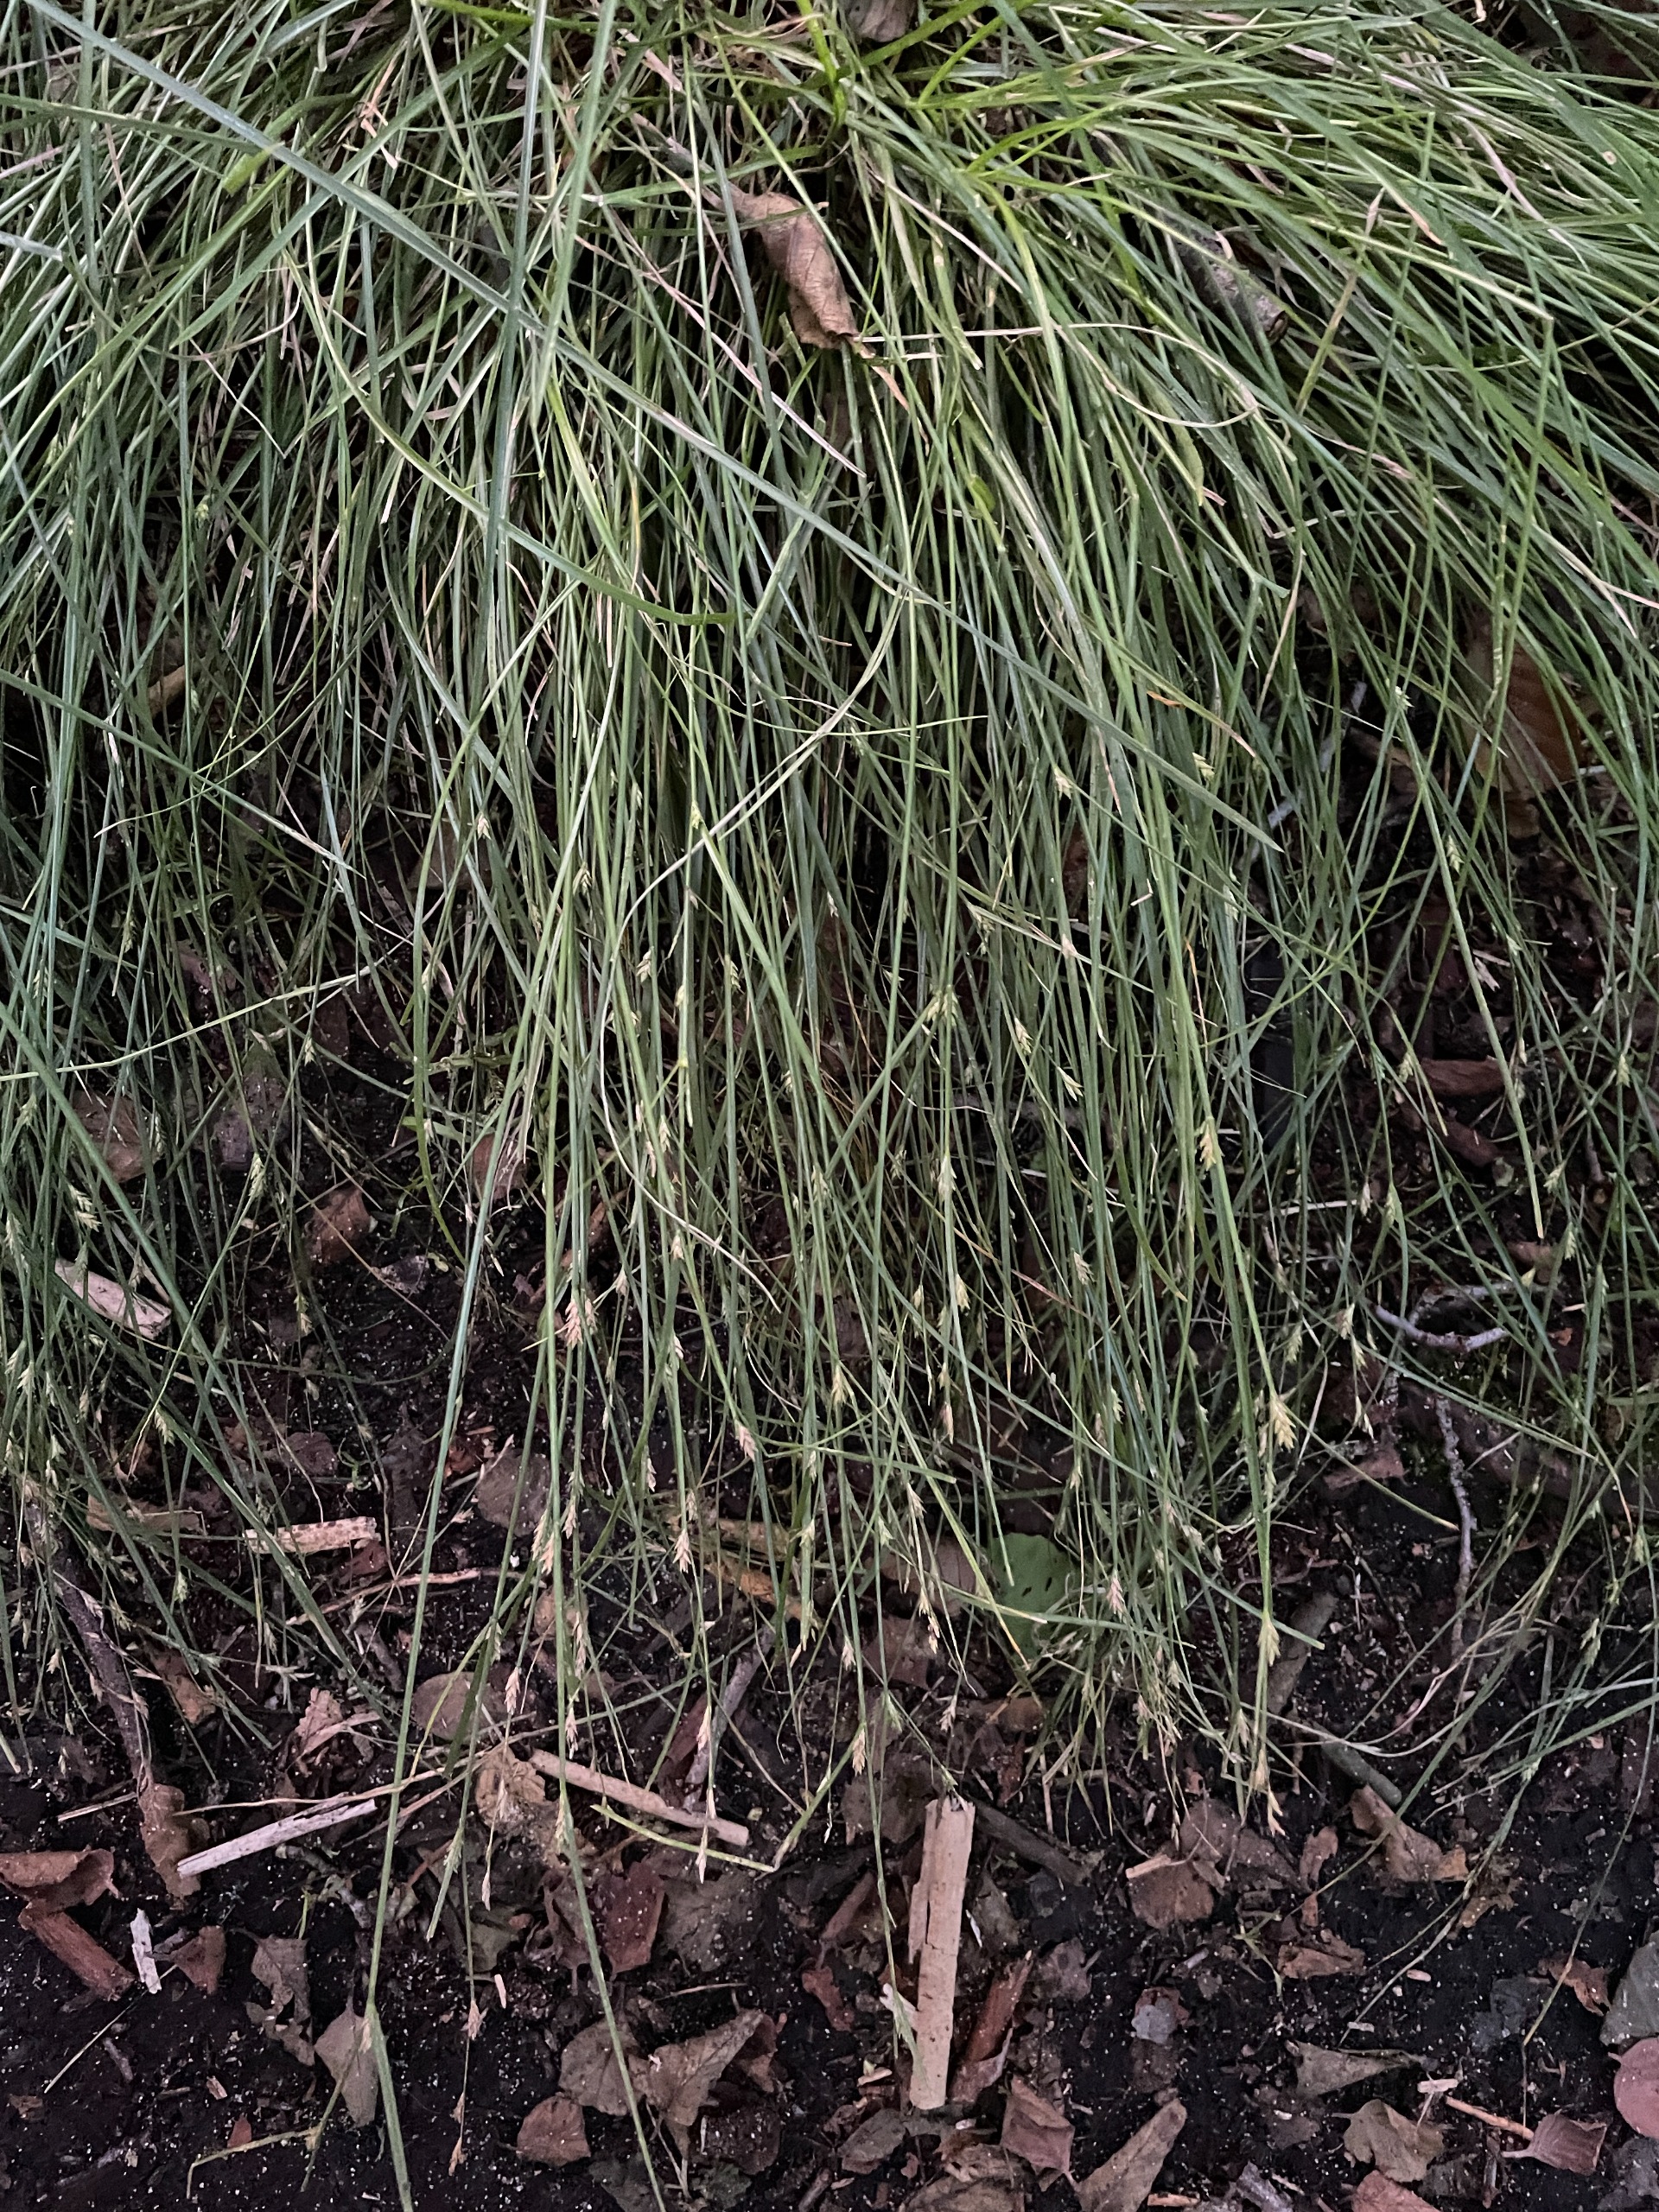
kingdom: Plantae
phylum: Tracheophyta
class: Liliopsida
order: Poales
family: Cyperaceae
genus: Carex
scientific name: Carex remota
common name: Akselblomstret star
